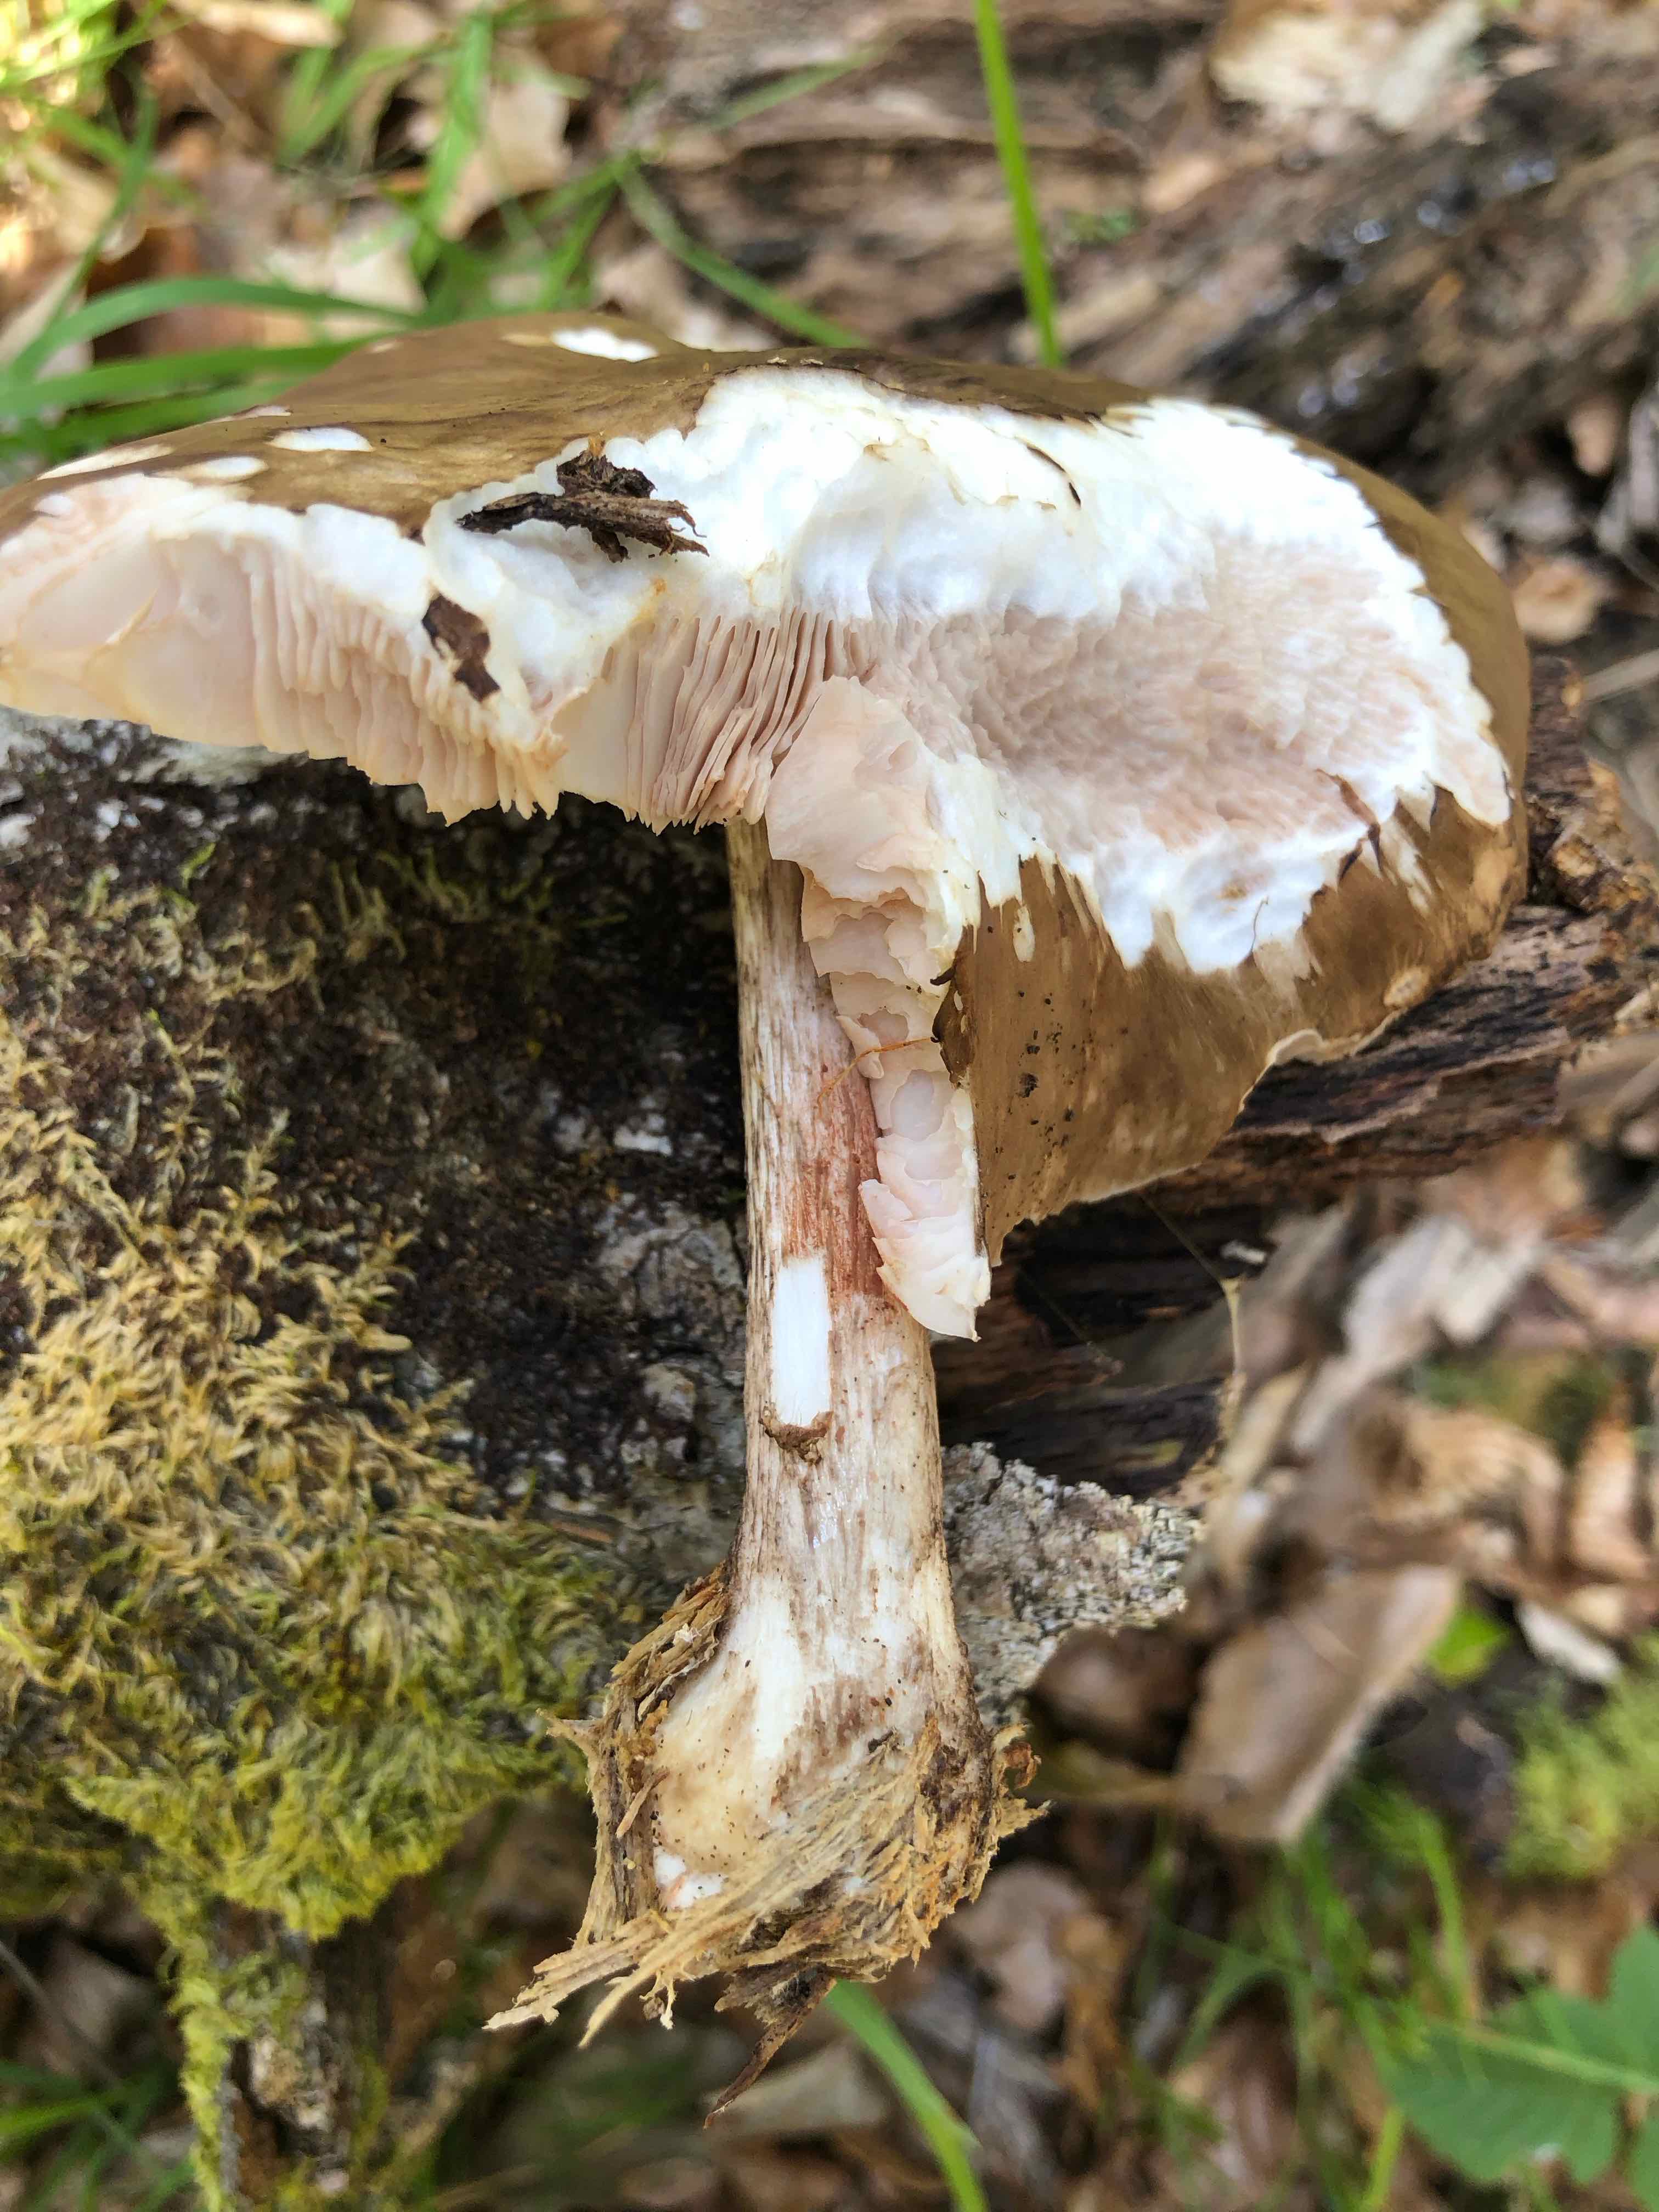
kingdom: Fungi
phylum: Basidiomycota
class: Agaricomycetes
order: Agaricales
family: Pluteaceae
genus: Pluteus
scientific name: Pluteus cervinus
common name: sodfarvet skærmhat
